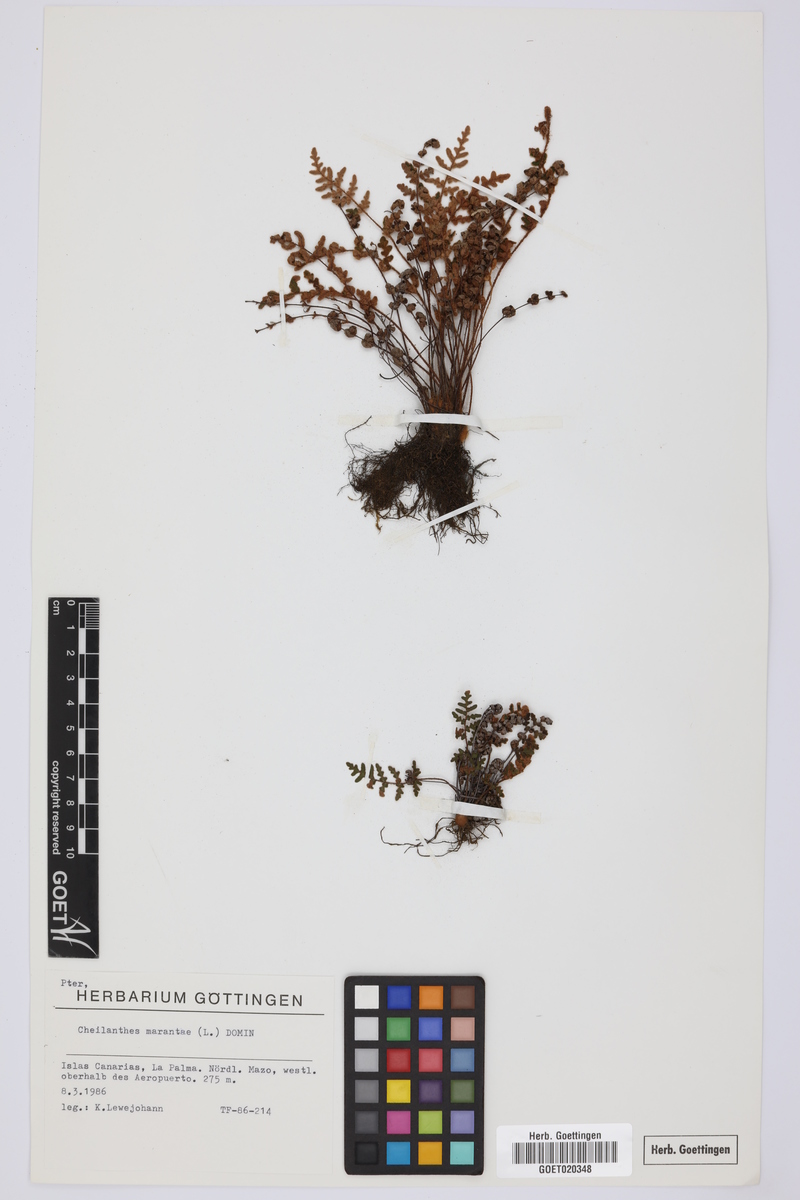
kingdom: Plantae
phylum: Tracheophyta
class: Polypodiopsida
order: Polypodiales
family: Pteridaceae
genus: Paragymnopteris
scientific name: Paragymnopteris marantae
